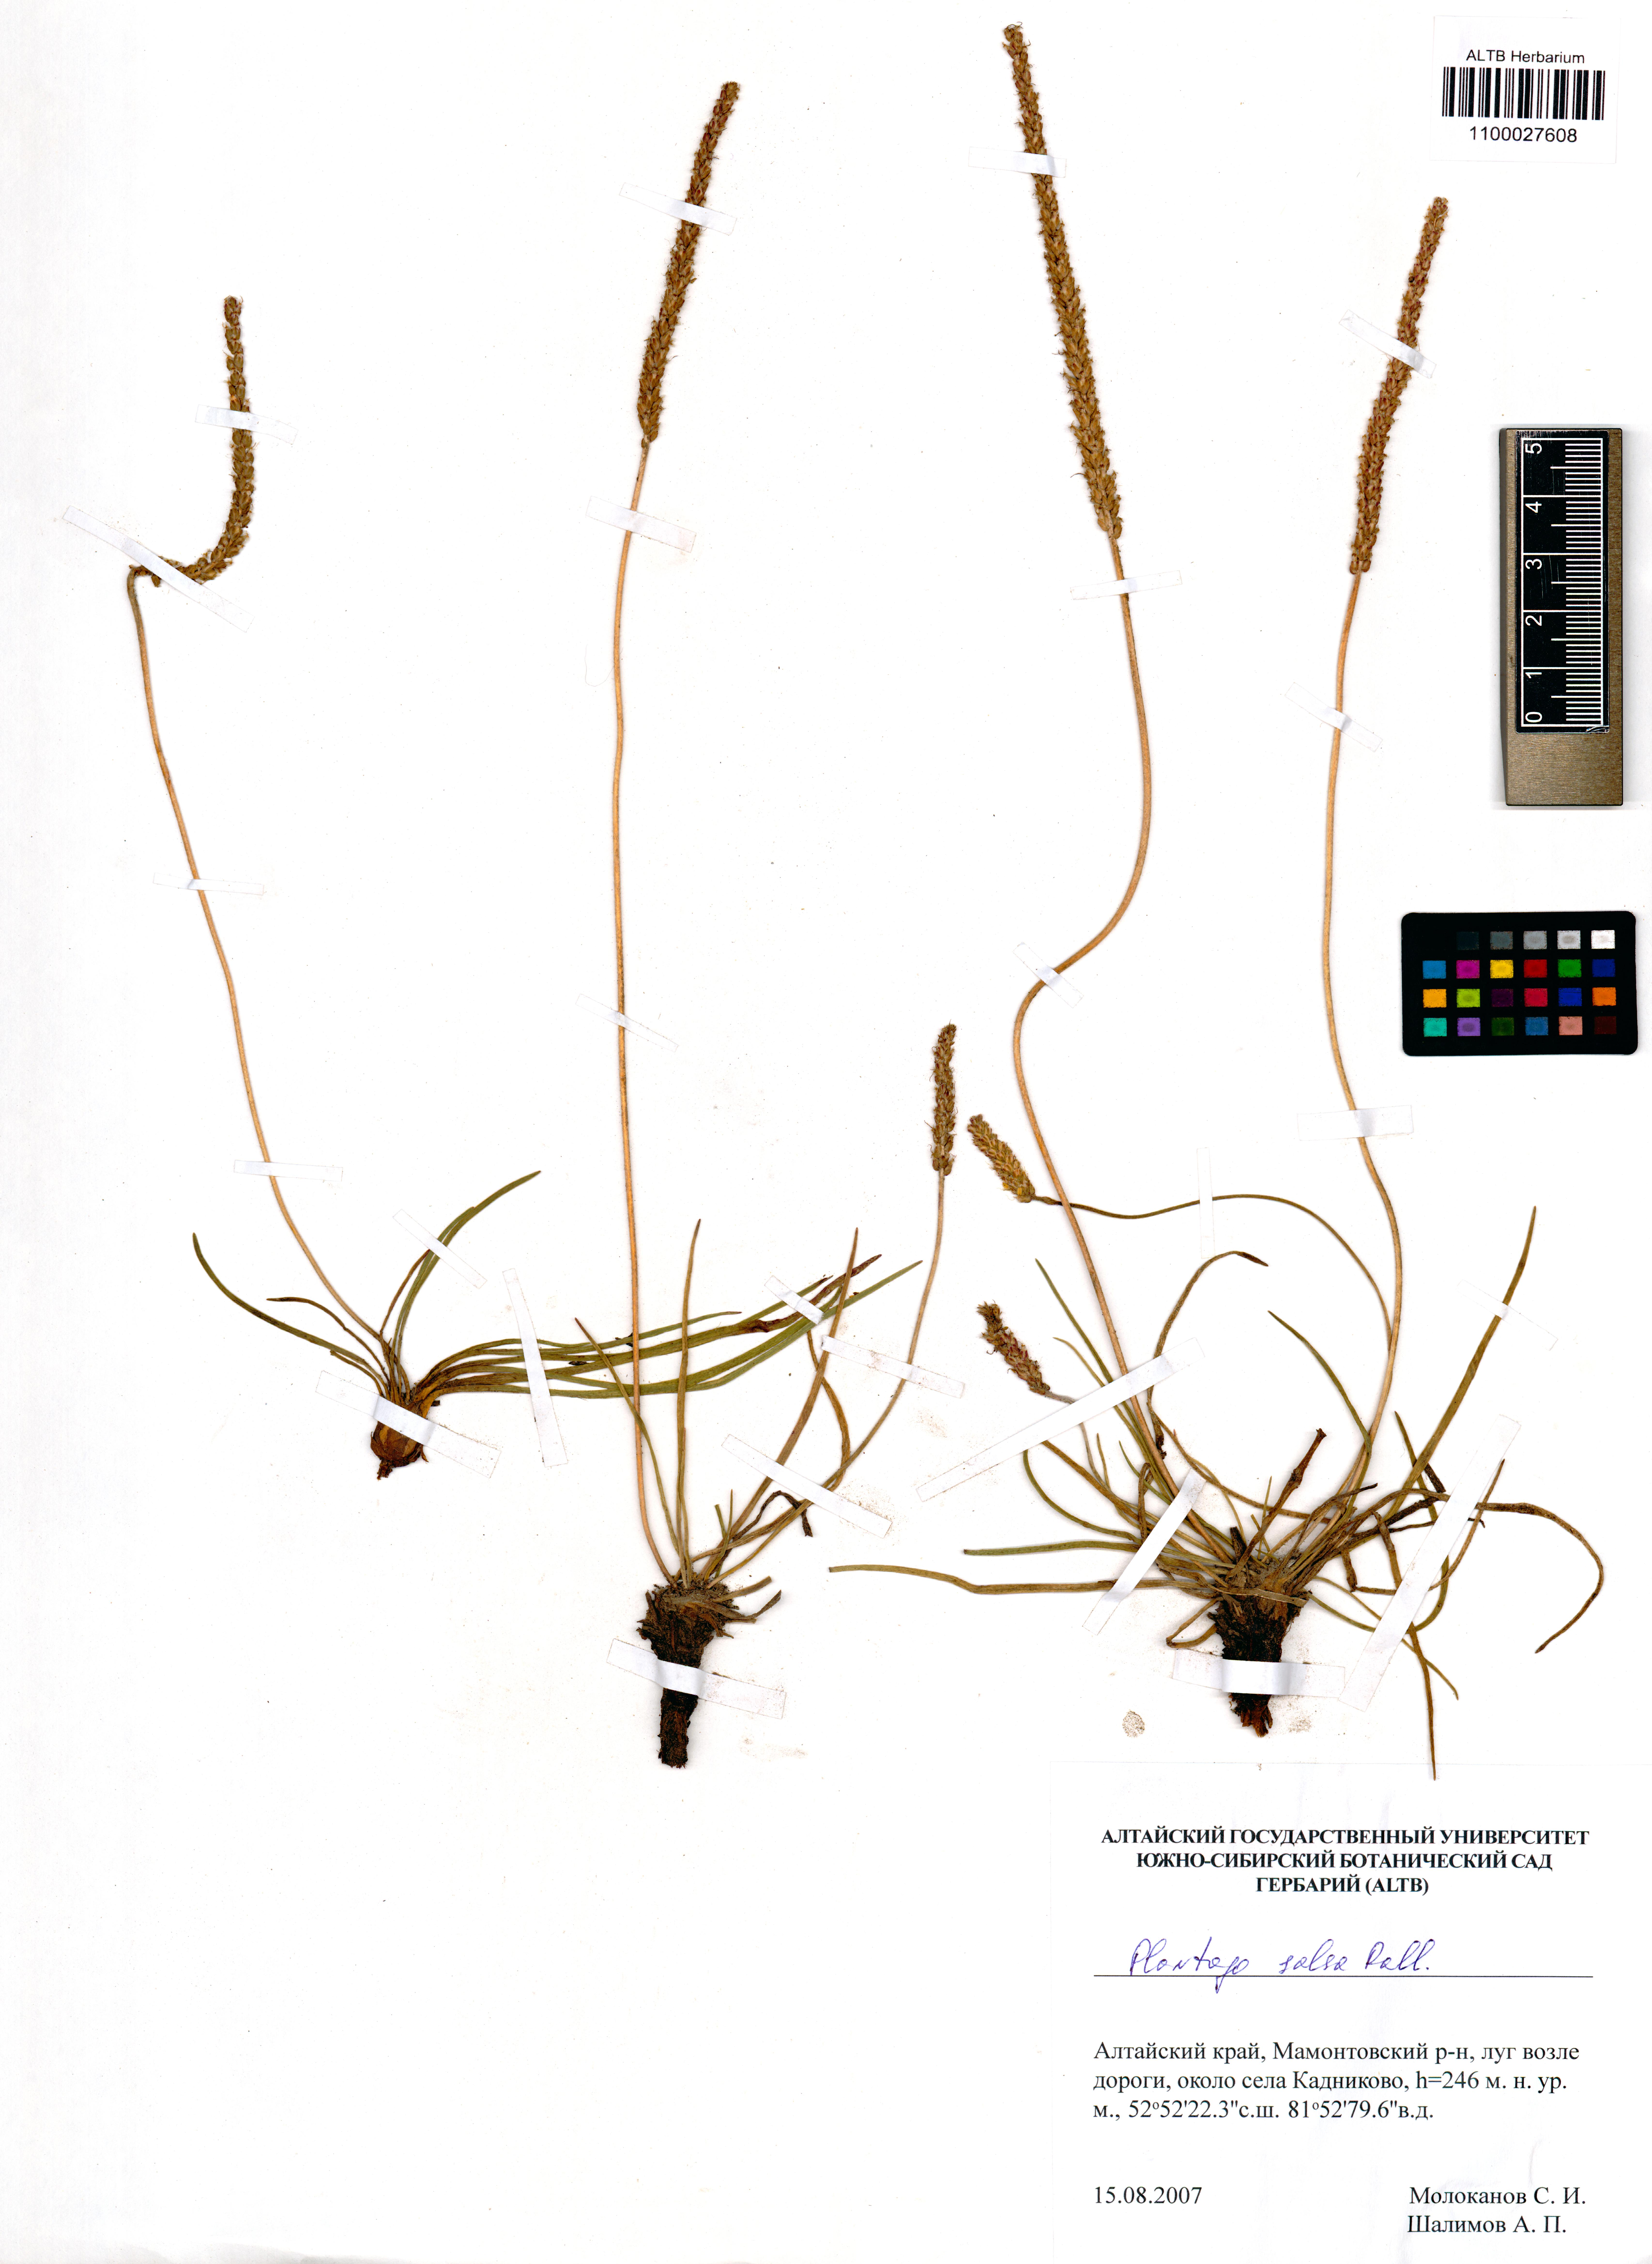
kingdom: Plantae
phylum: Tracheophyta
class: Magnoliopsida
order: Lamiales
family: Plantaginaceae
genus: Plantago
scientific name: Plantago salsa
